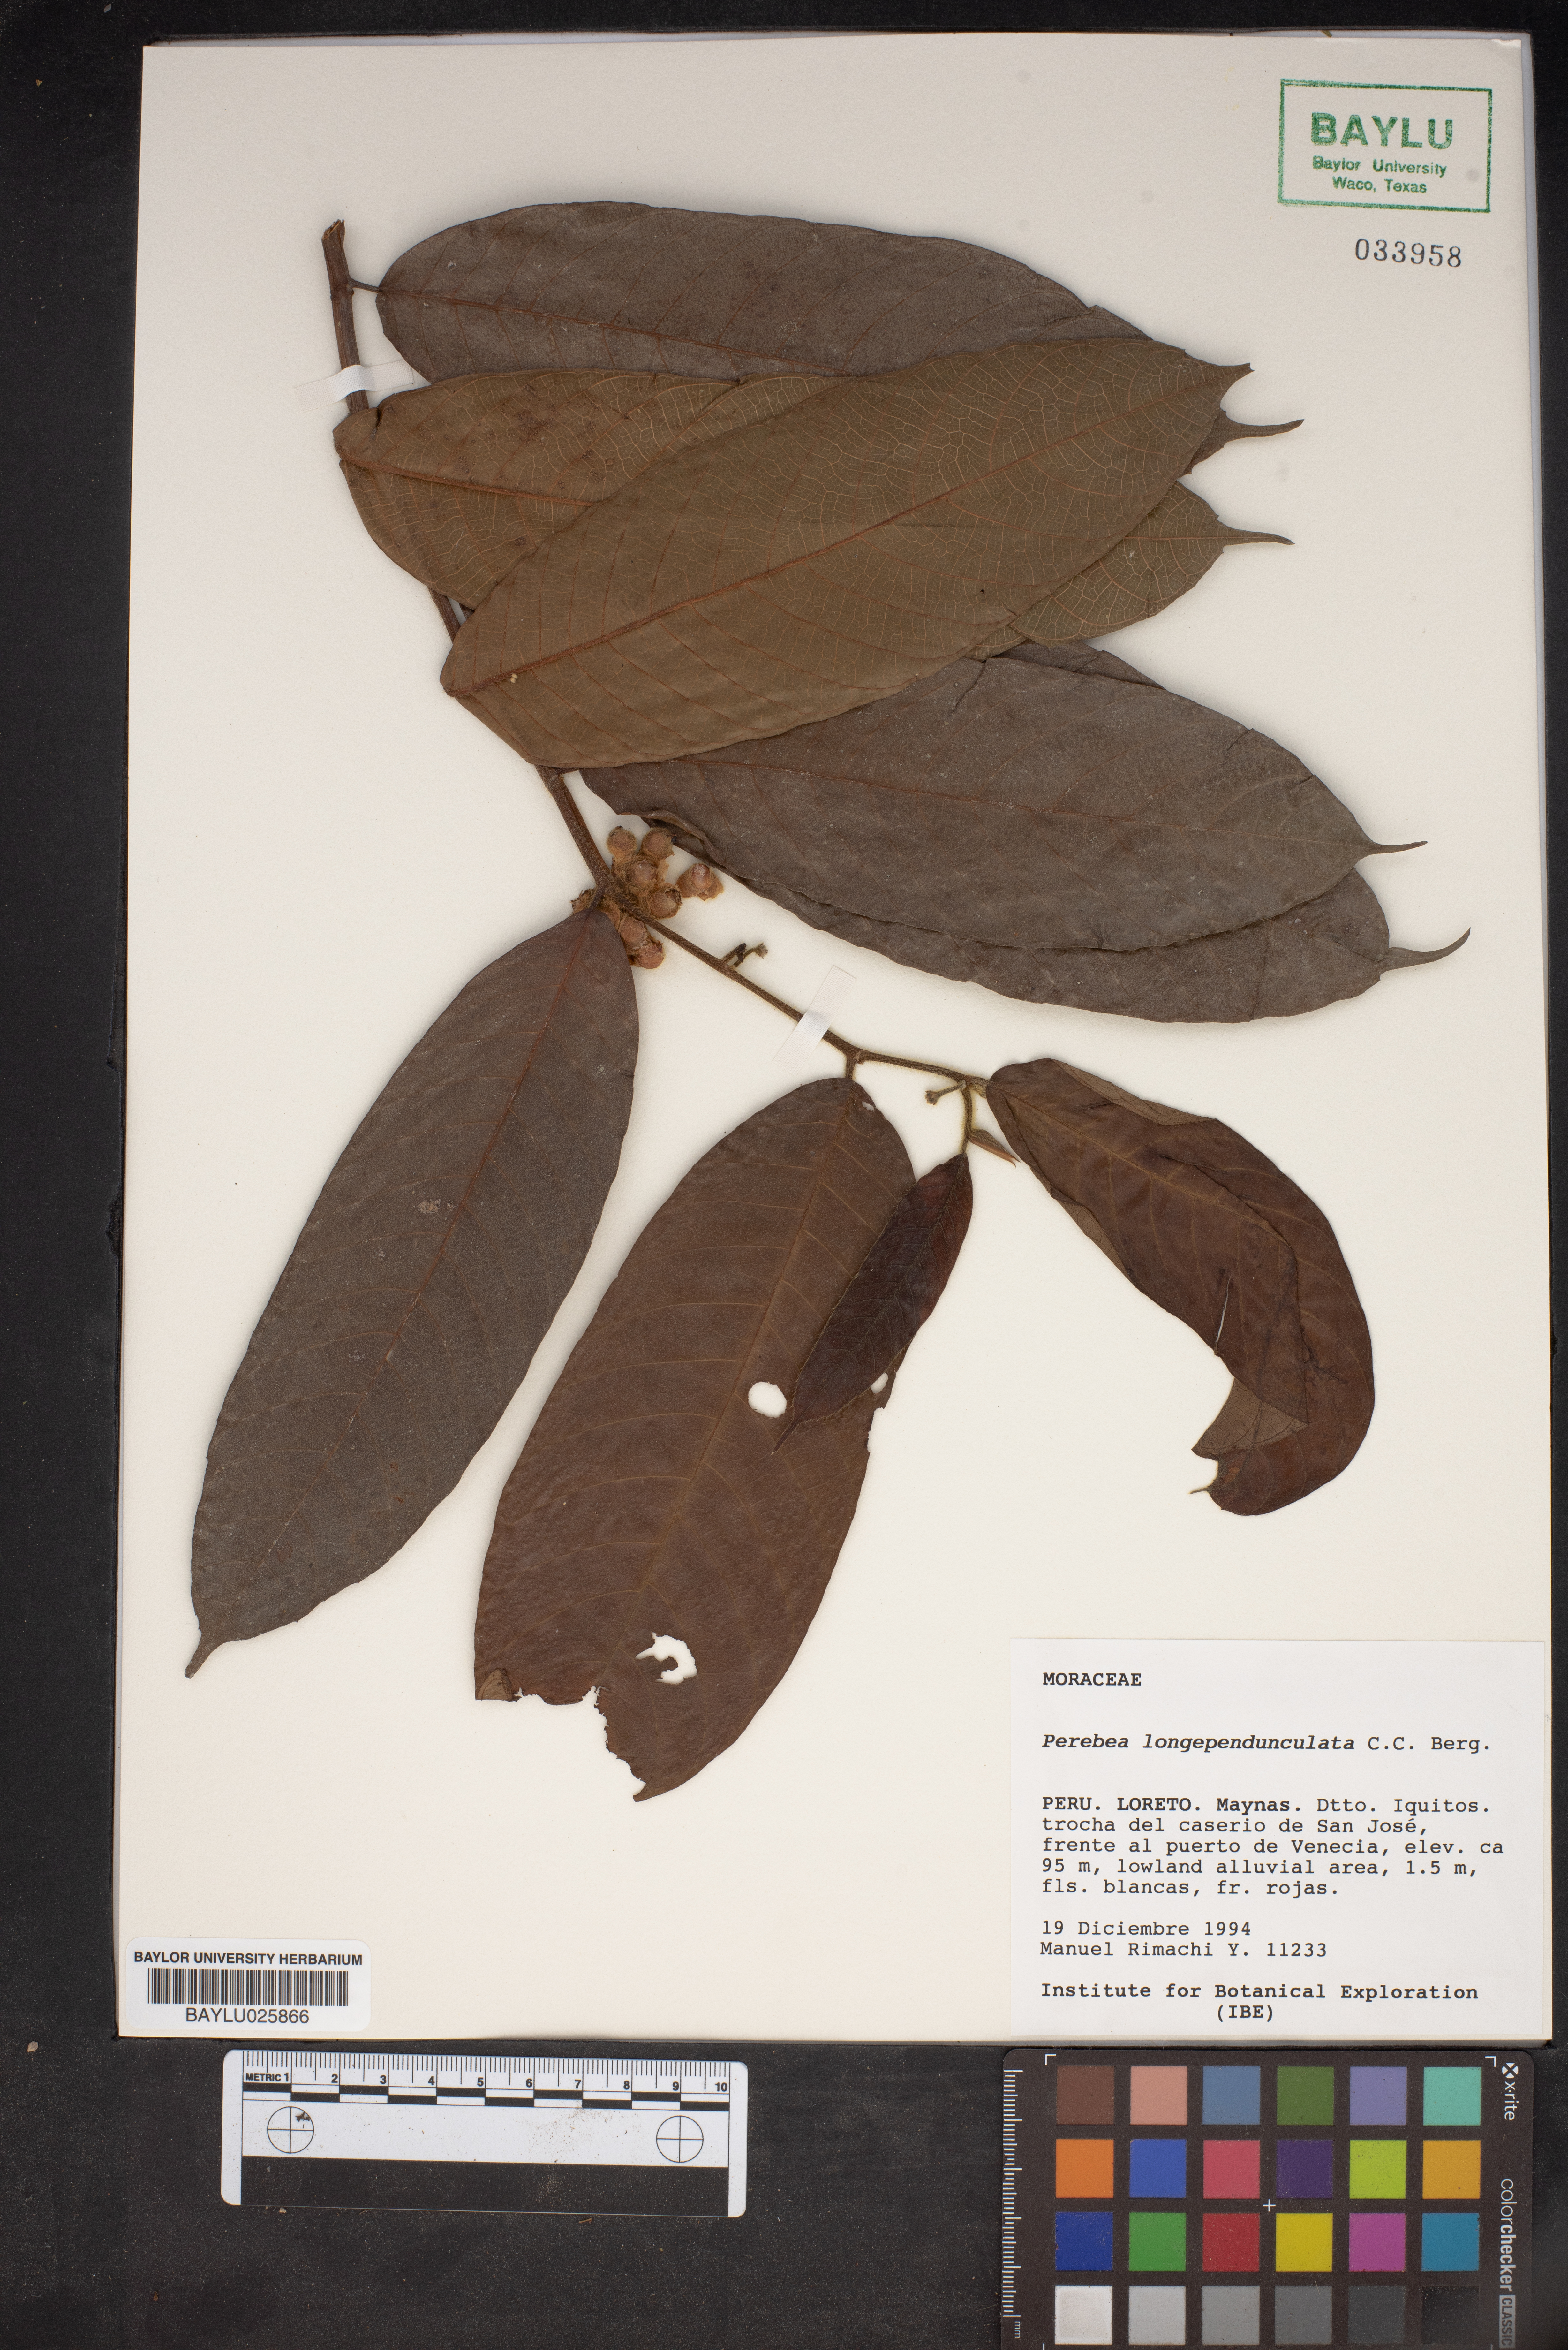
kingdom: Plantae
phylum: Tracheophyta
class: Magnoliopsida
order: Rosales
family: Moraceae
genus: Perebea
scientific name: Perebea longepedunculata
